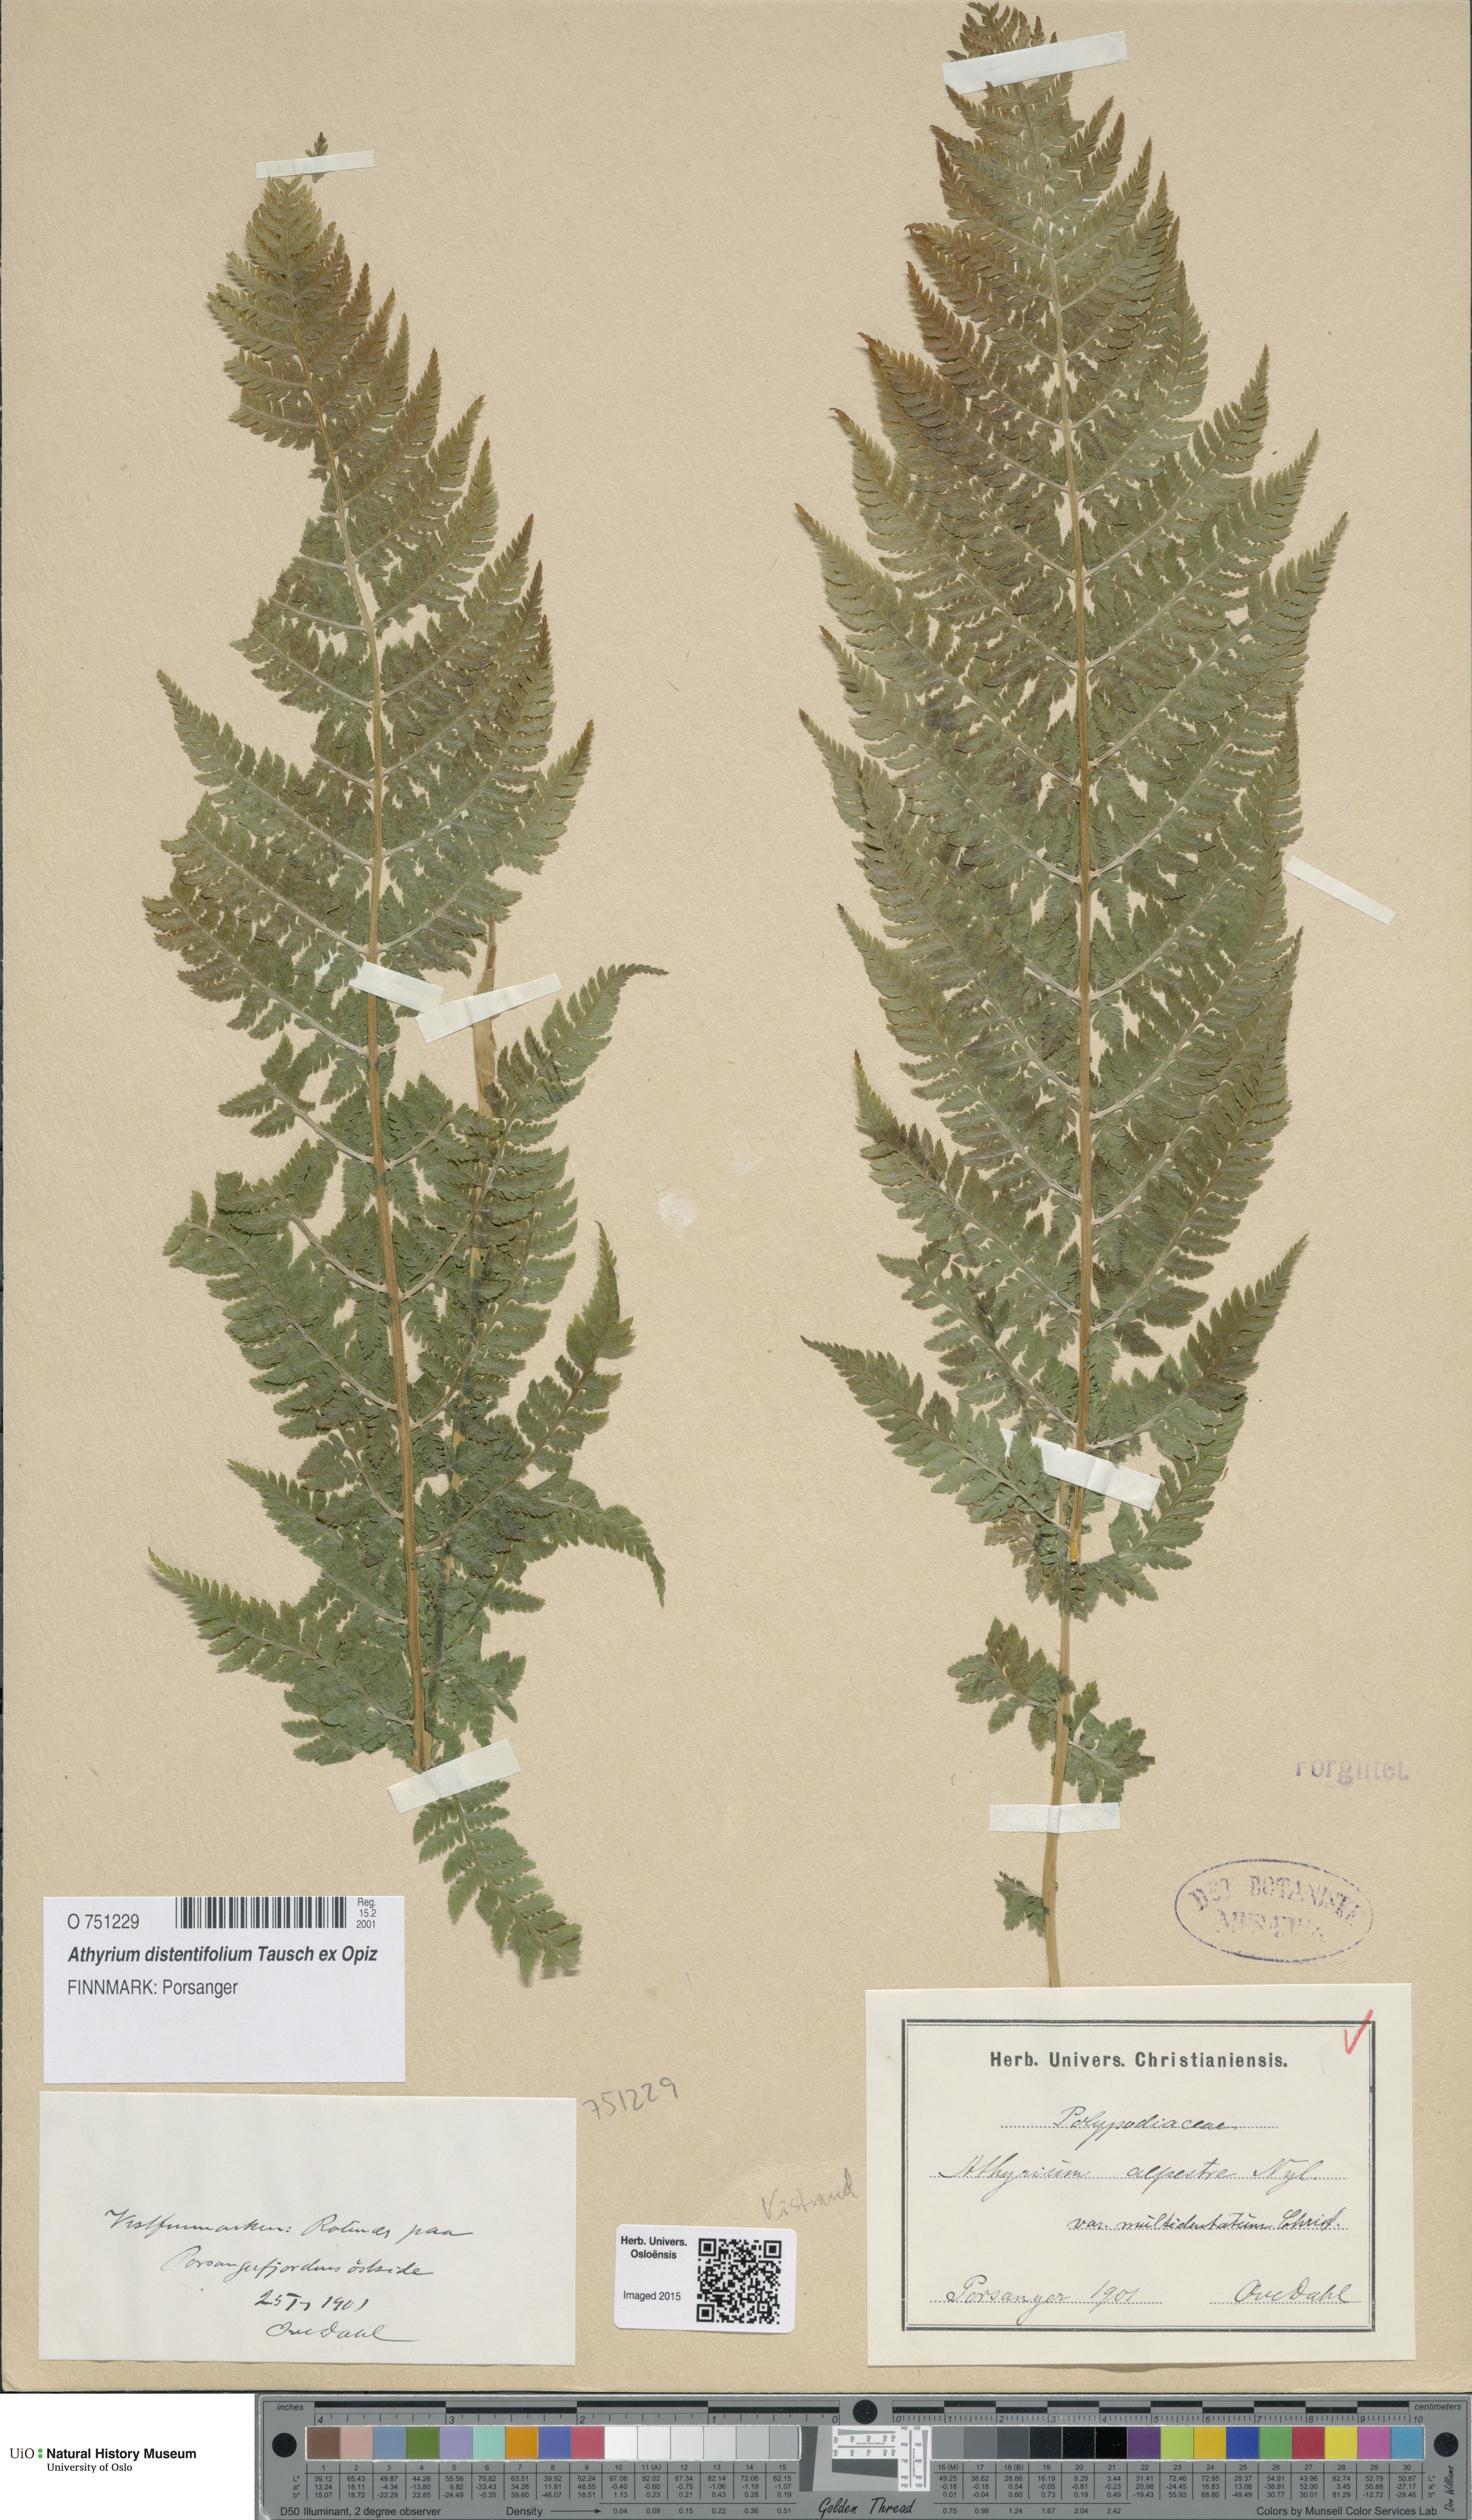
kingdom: Plantae
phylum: Tracheophyta
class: Polypodiopsida
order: Polypodiales
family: Athyriaceae
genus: Pseudathyrium
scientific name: Pseudathyrium alpestre
